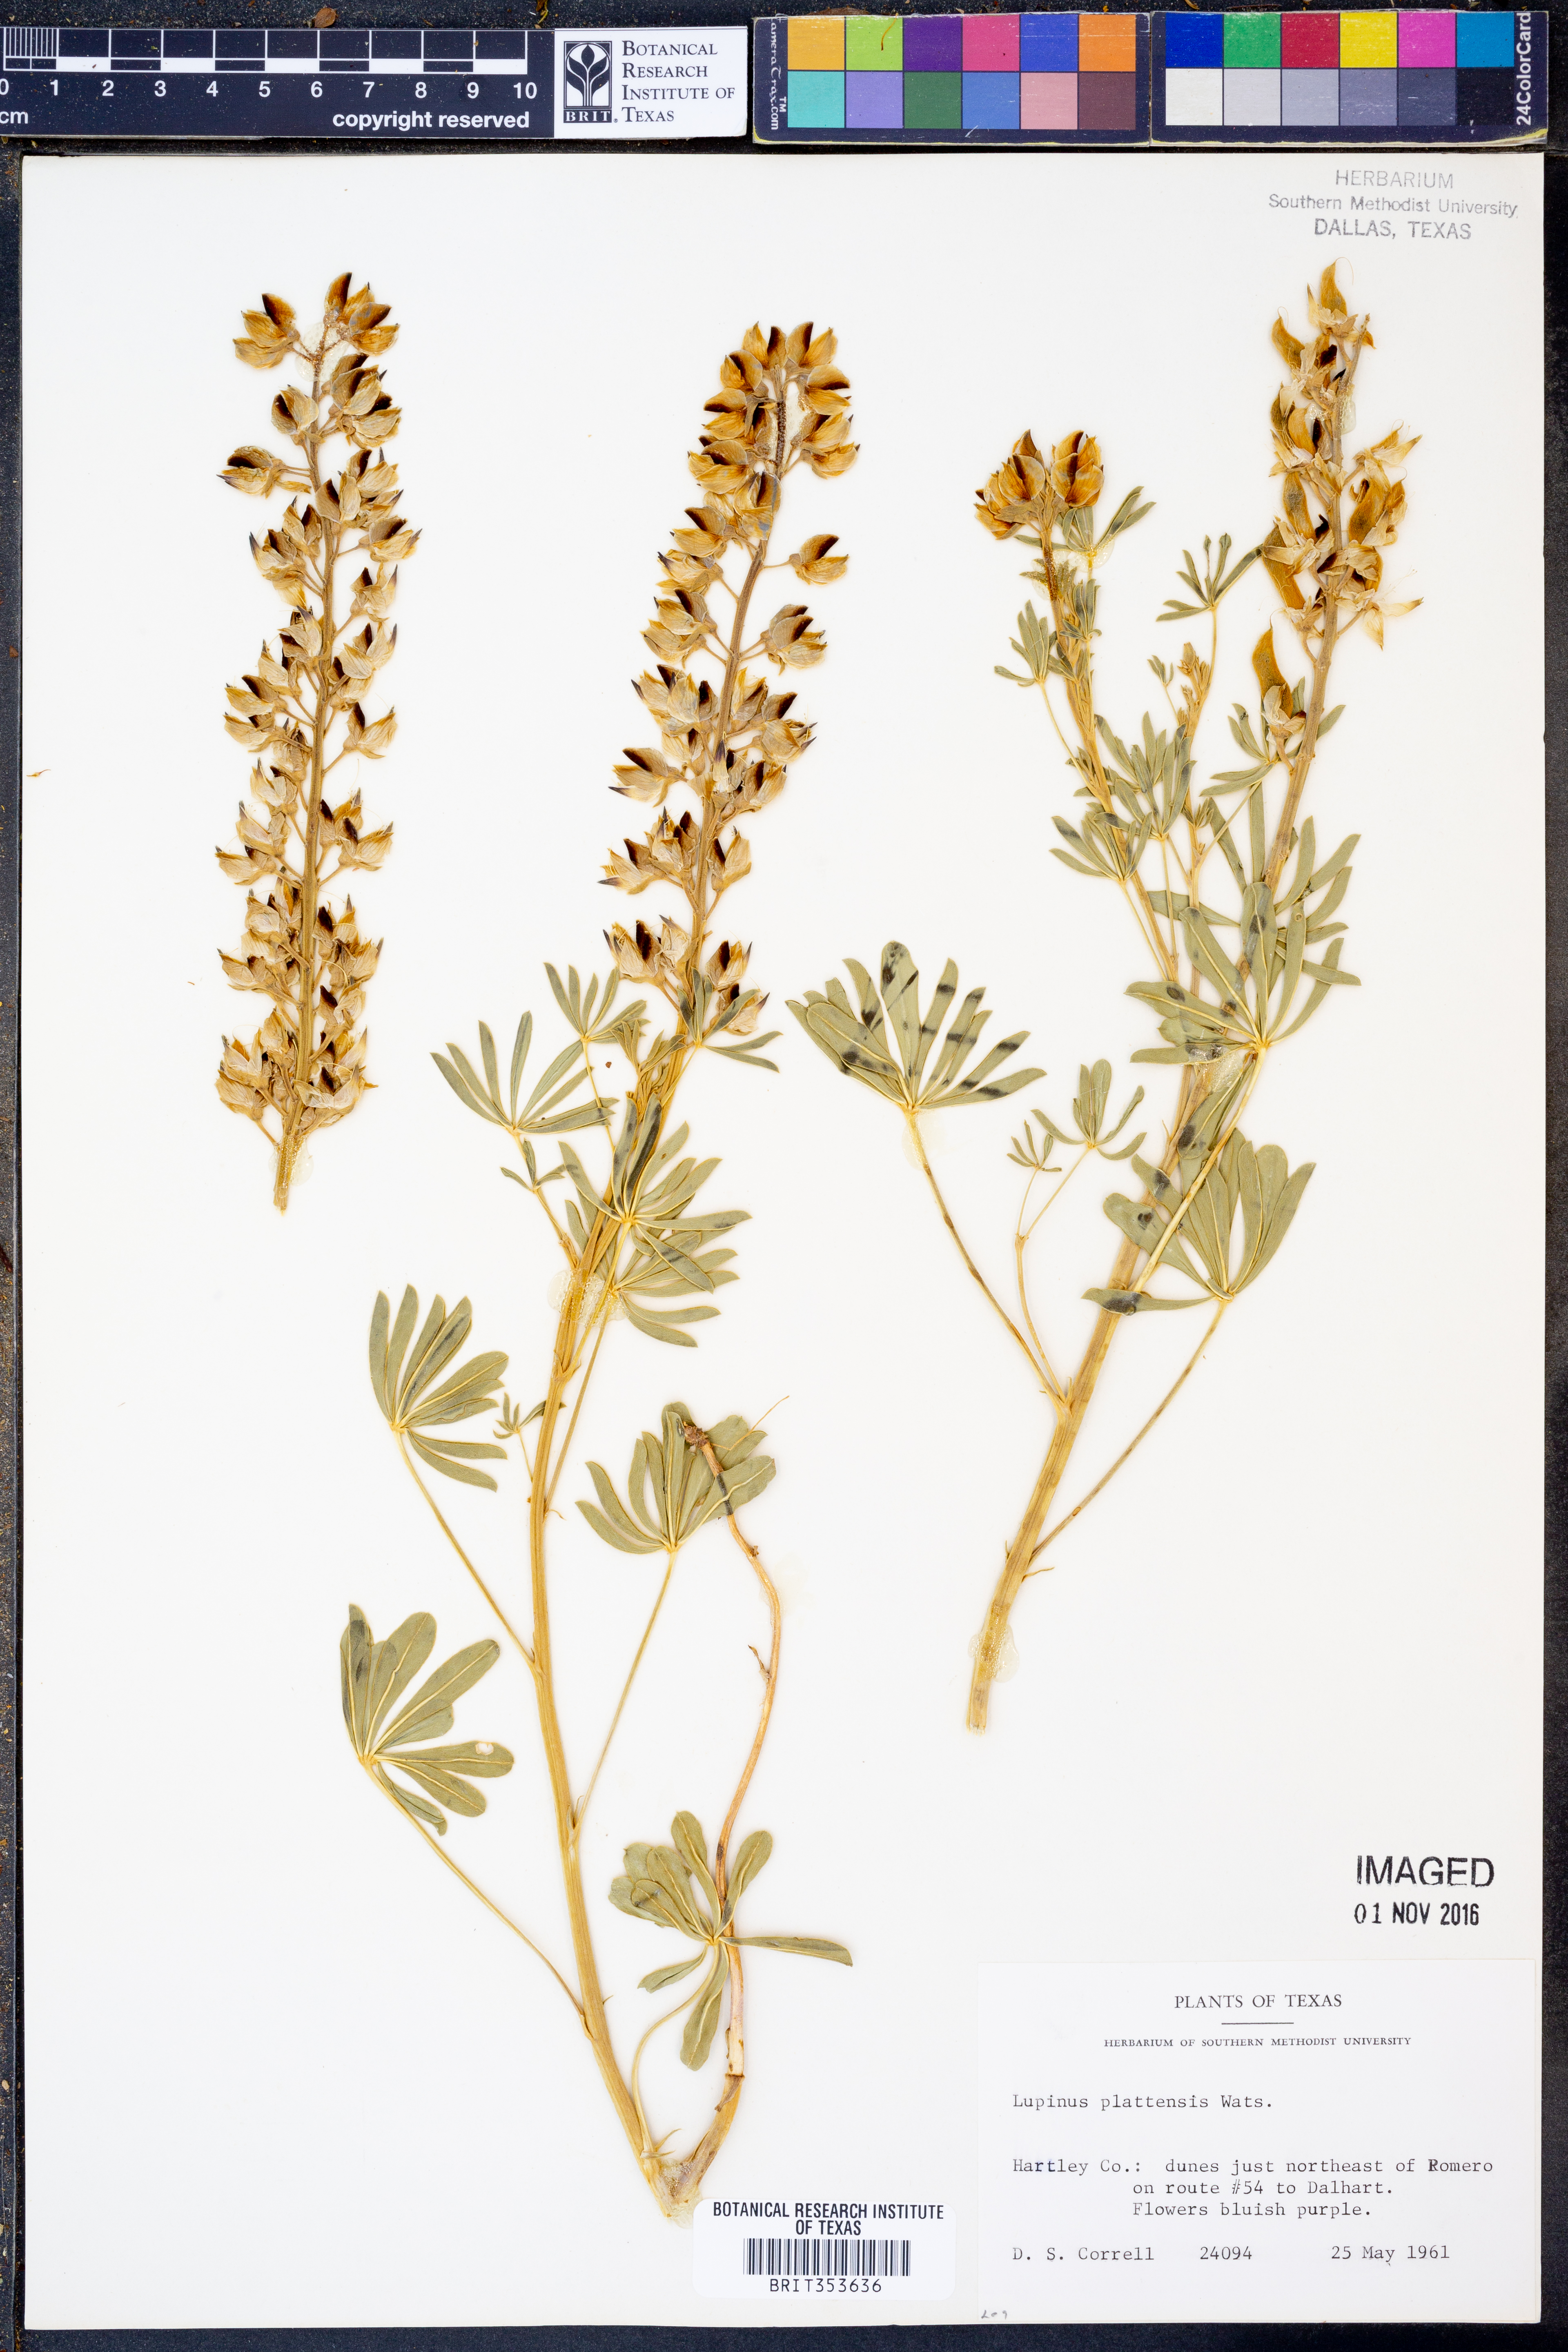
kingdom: Plantae
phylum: Tracheophyta
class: Magnoliopsida
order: Fabales
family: Fabaceae
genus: Lupinus
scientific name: Lupinus plattensis
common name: Platte lupine
